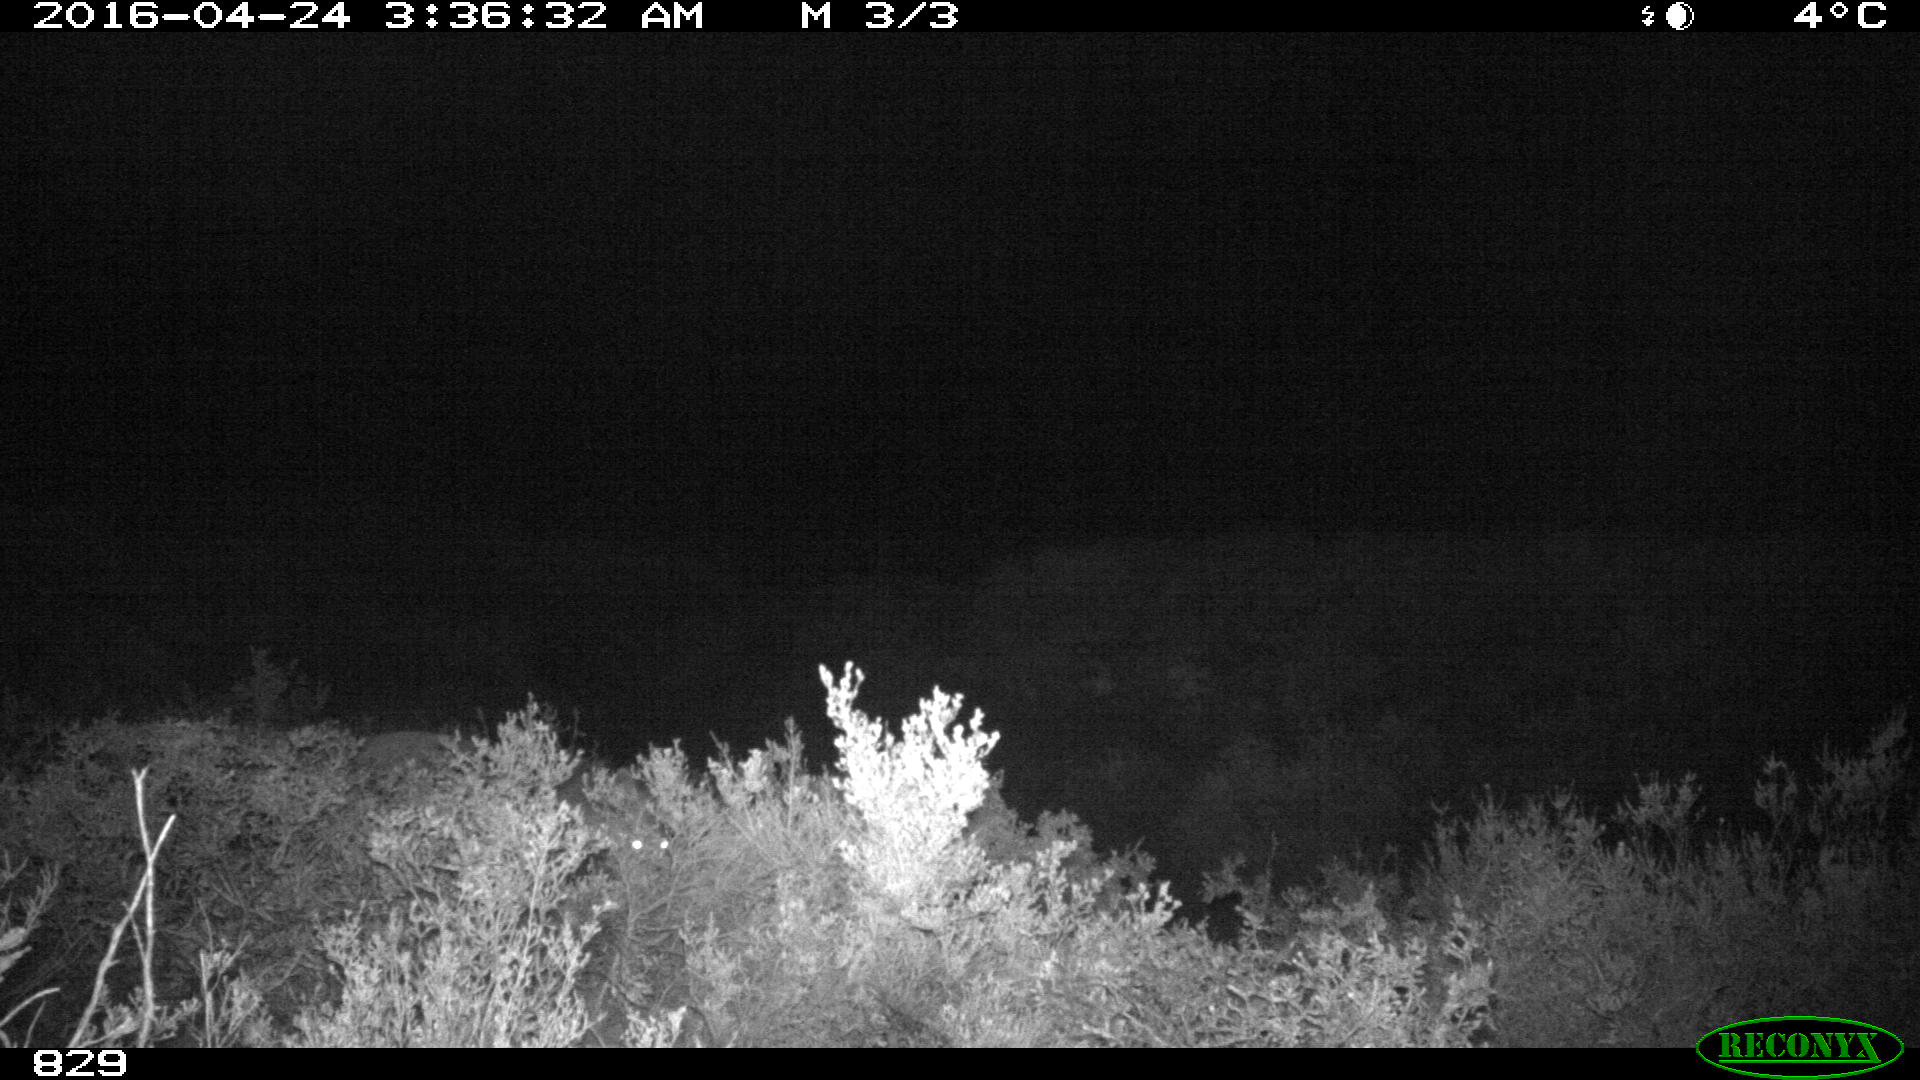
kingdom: Animalia
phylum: Chordata
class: Mammalia
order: Carnivora
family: Canidae
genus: Vulpes
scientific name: Vulpes vulpes
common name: Red fox
